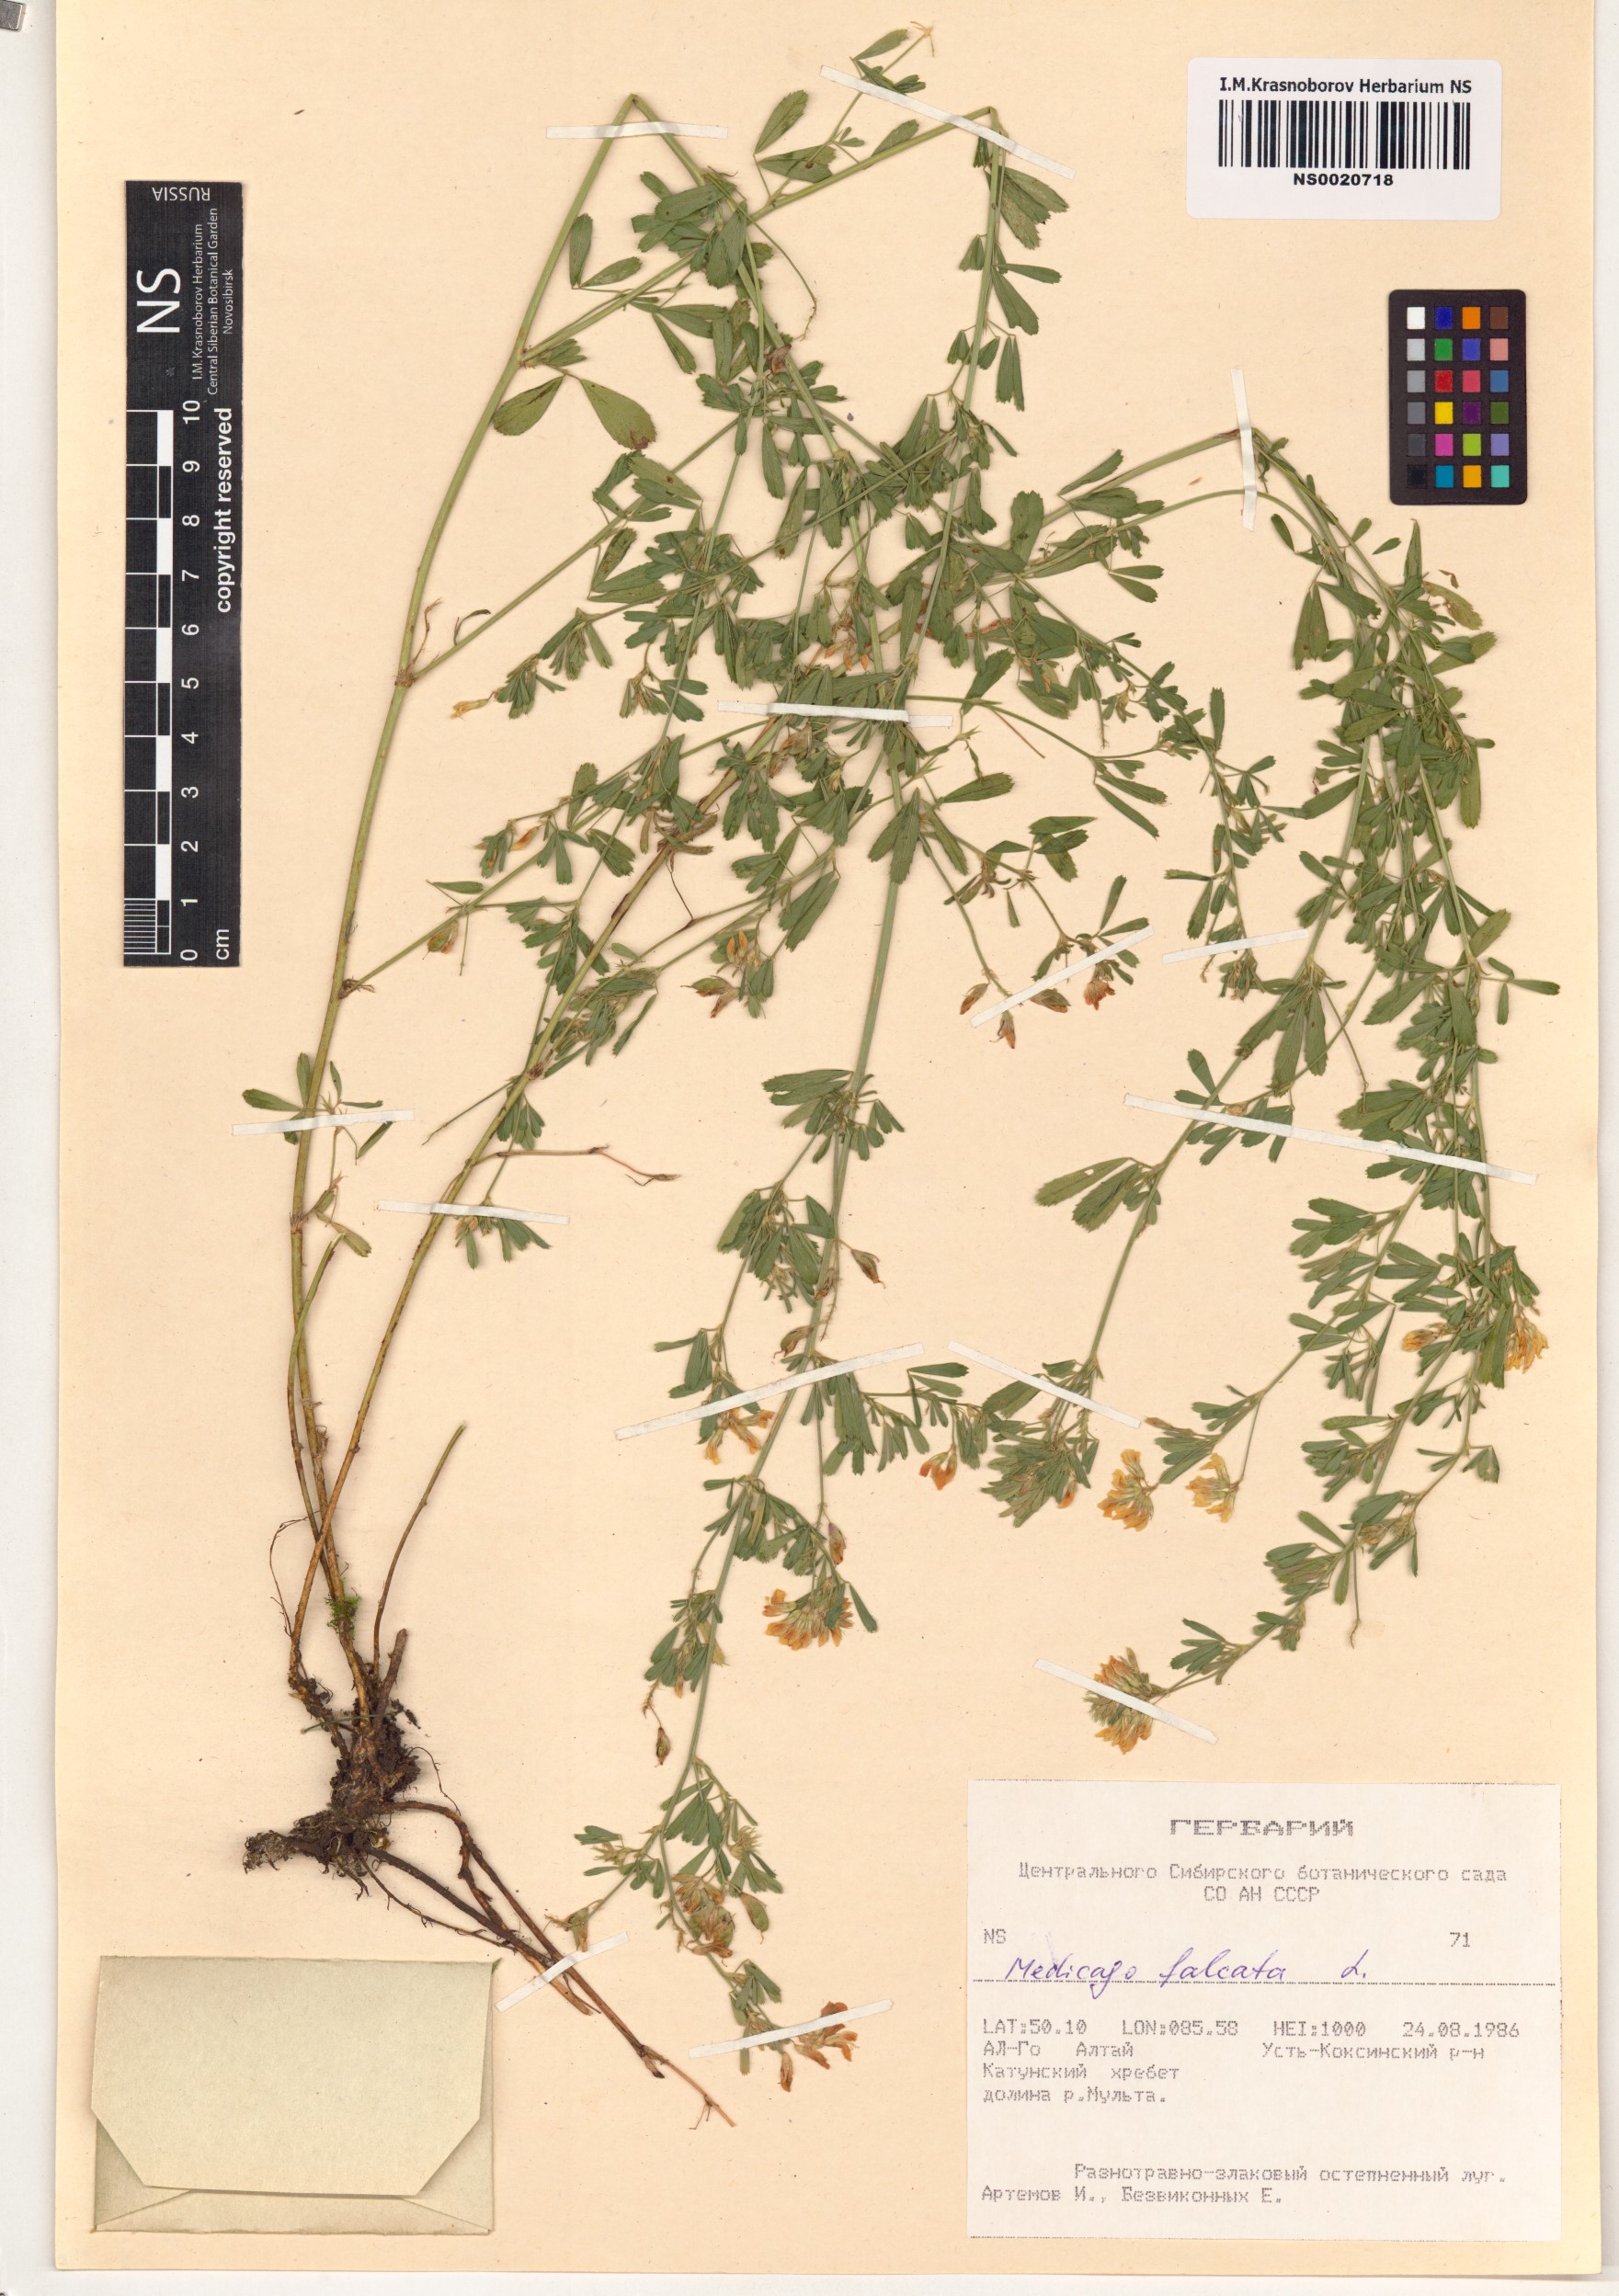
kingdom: Plantae
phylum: Tracheophyta
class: Magnoliopsida
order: Fabales
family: Fabaceae
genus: Medicago
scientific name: Medicago falcata
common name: Sickle medick
